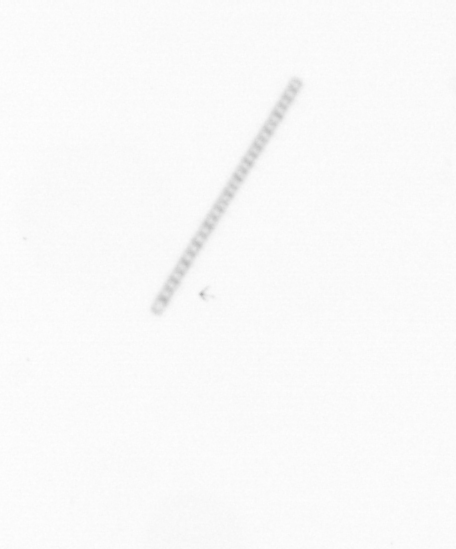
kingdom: Chromista
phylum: Ochrophyta
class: Bacillariophyceae
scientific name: Bacillariophyceae
